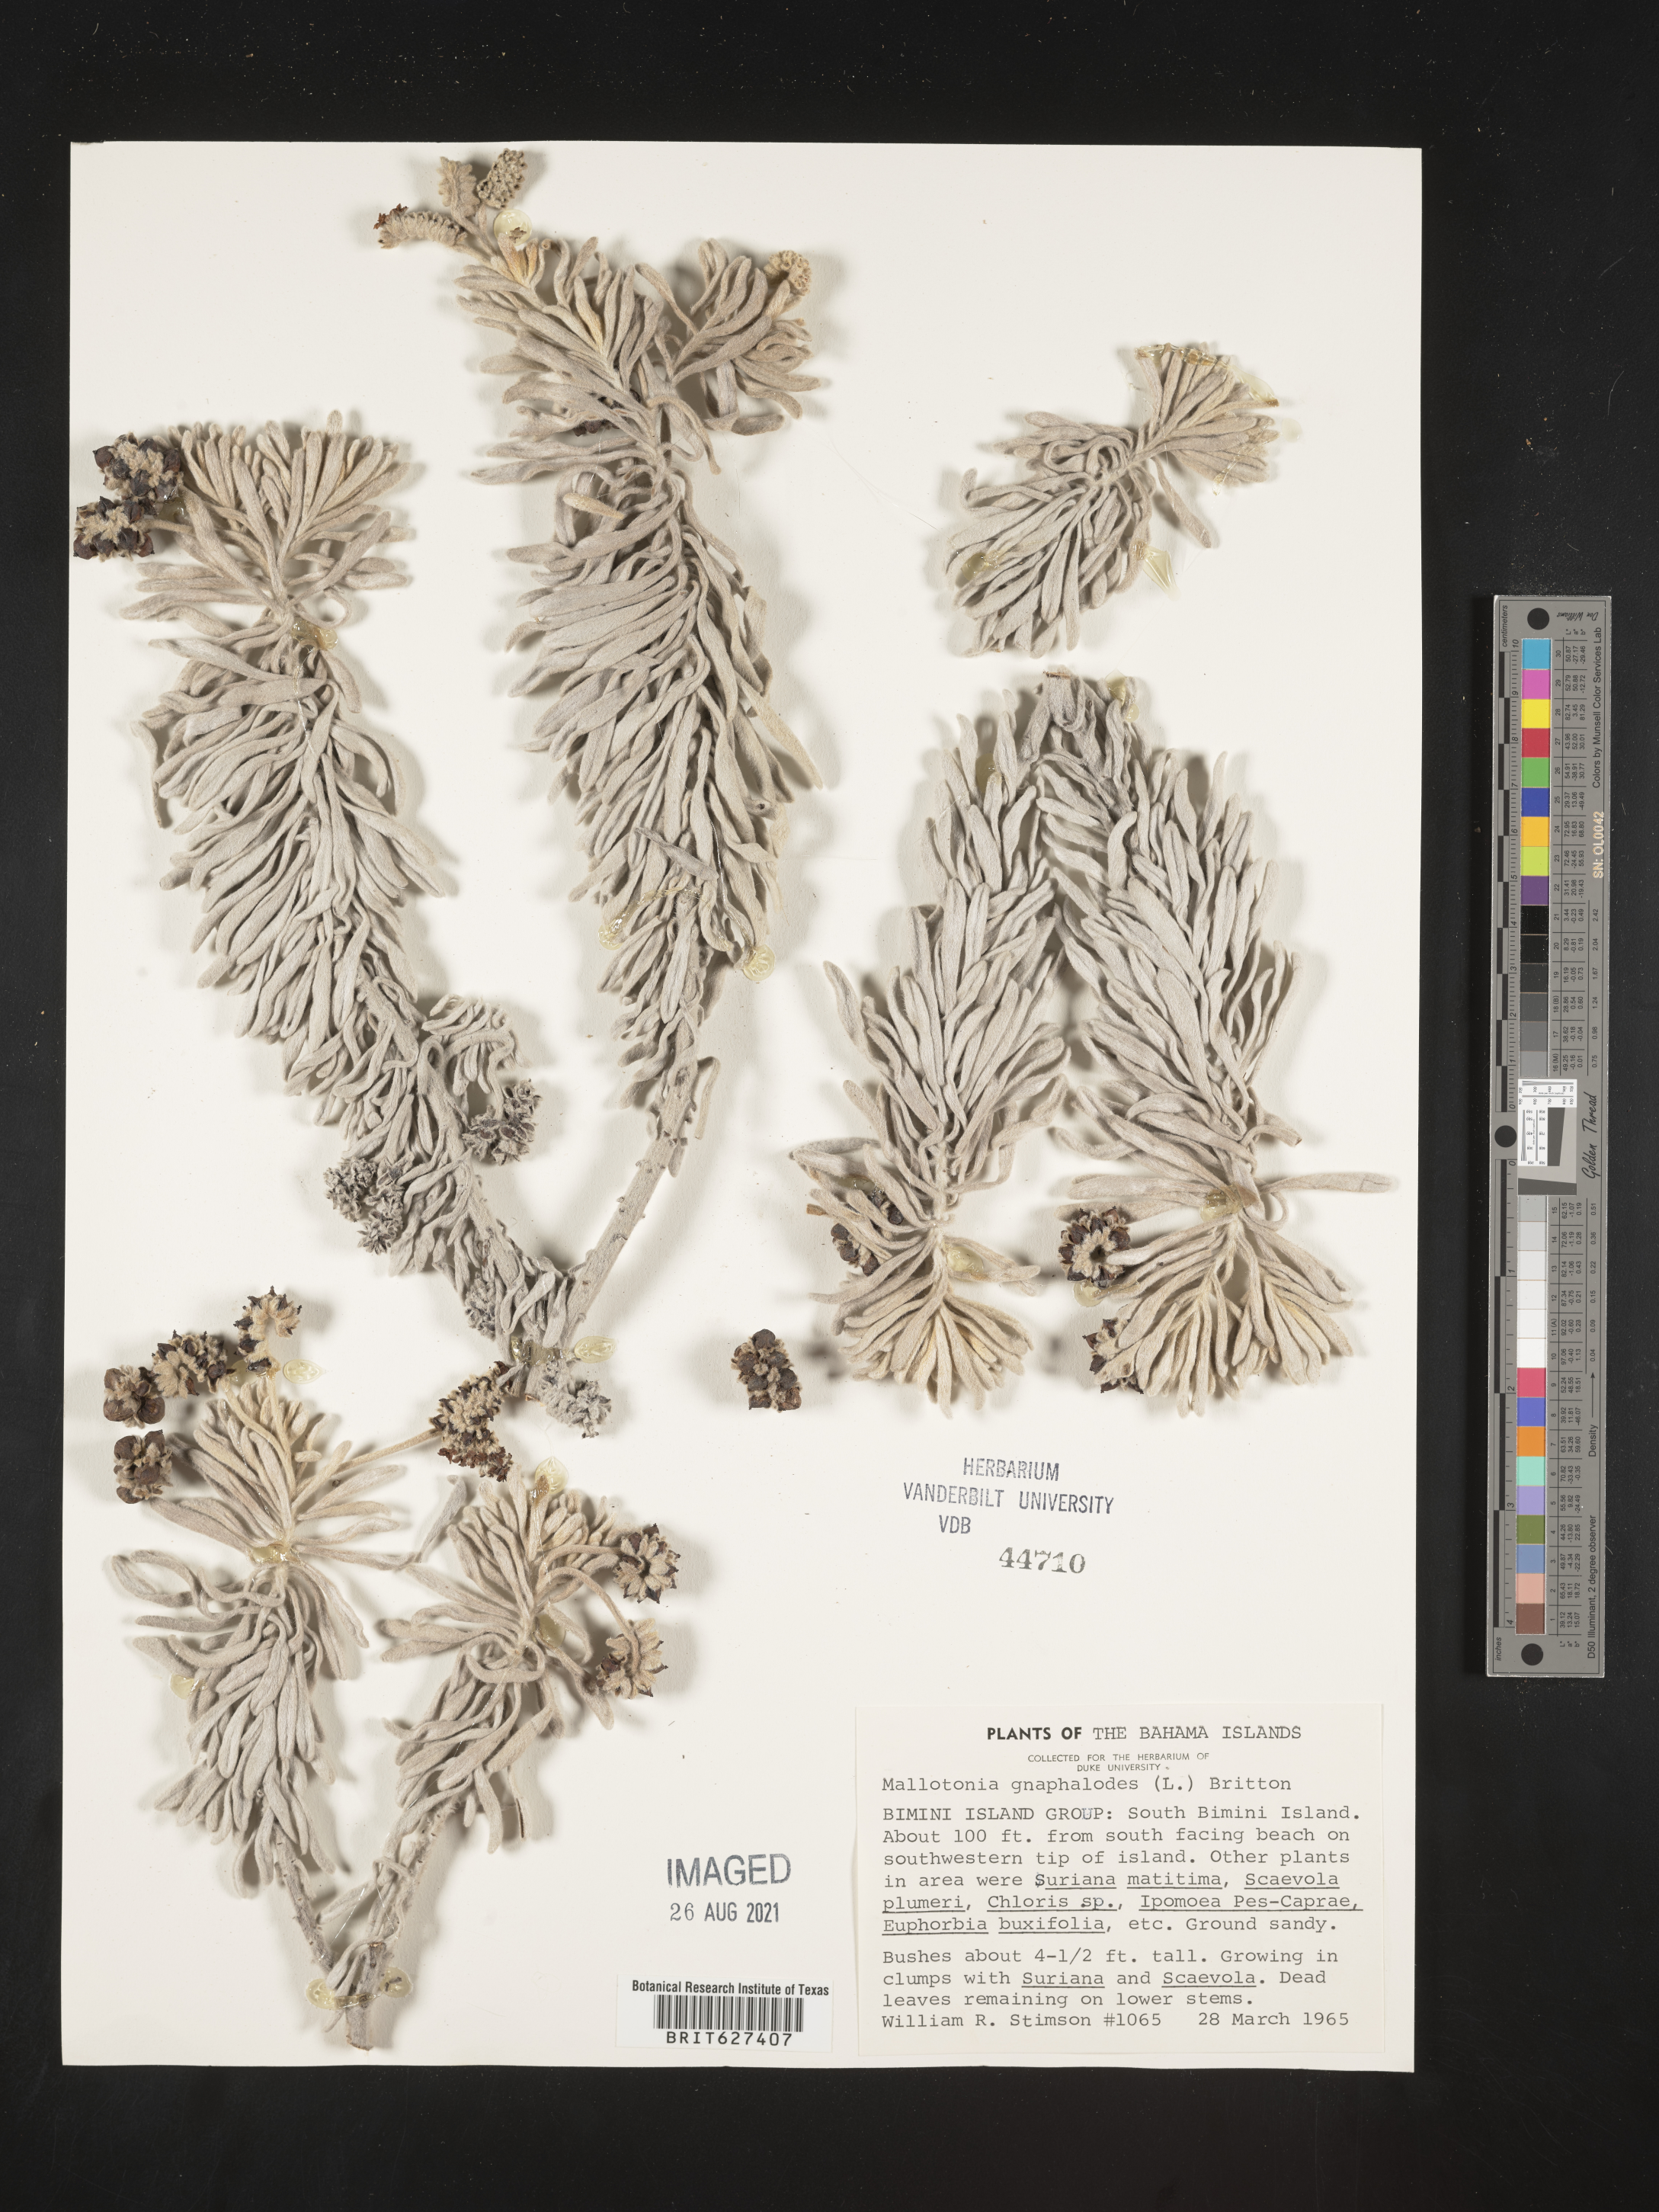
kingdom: Plantae
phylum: Tracheophyta
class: Magnoliopsida
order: Boraginales
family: Heliotropiaceae
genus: Tournefortia
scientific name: Tournefortia gnaphalodes
